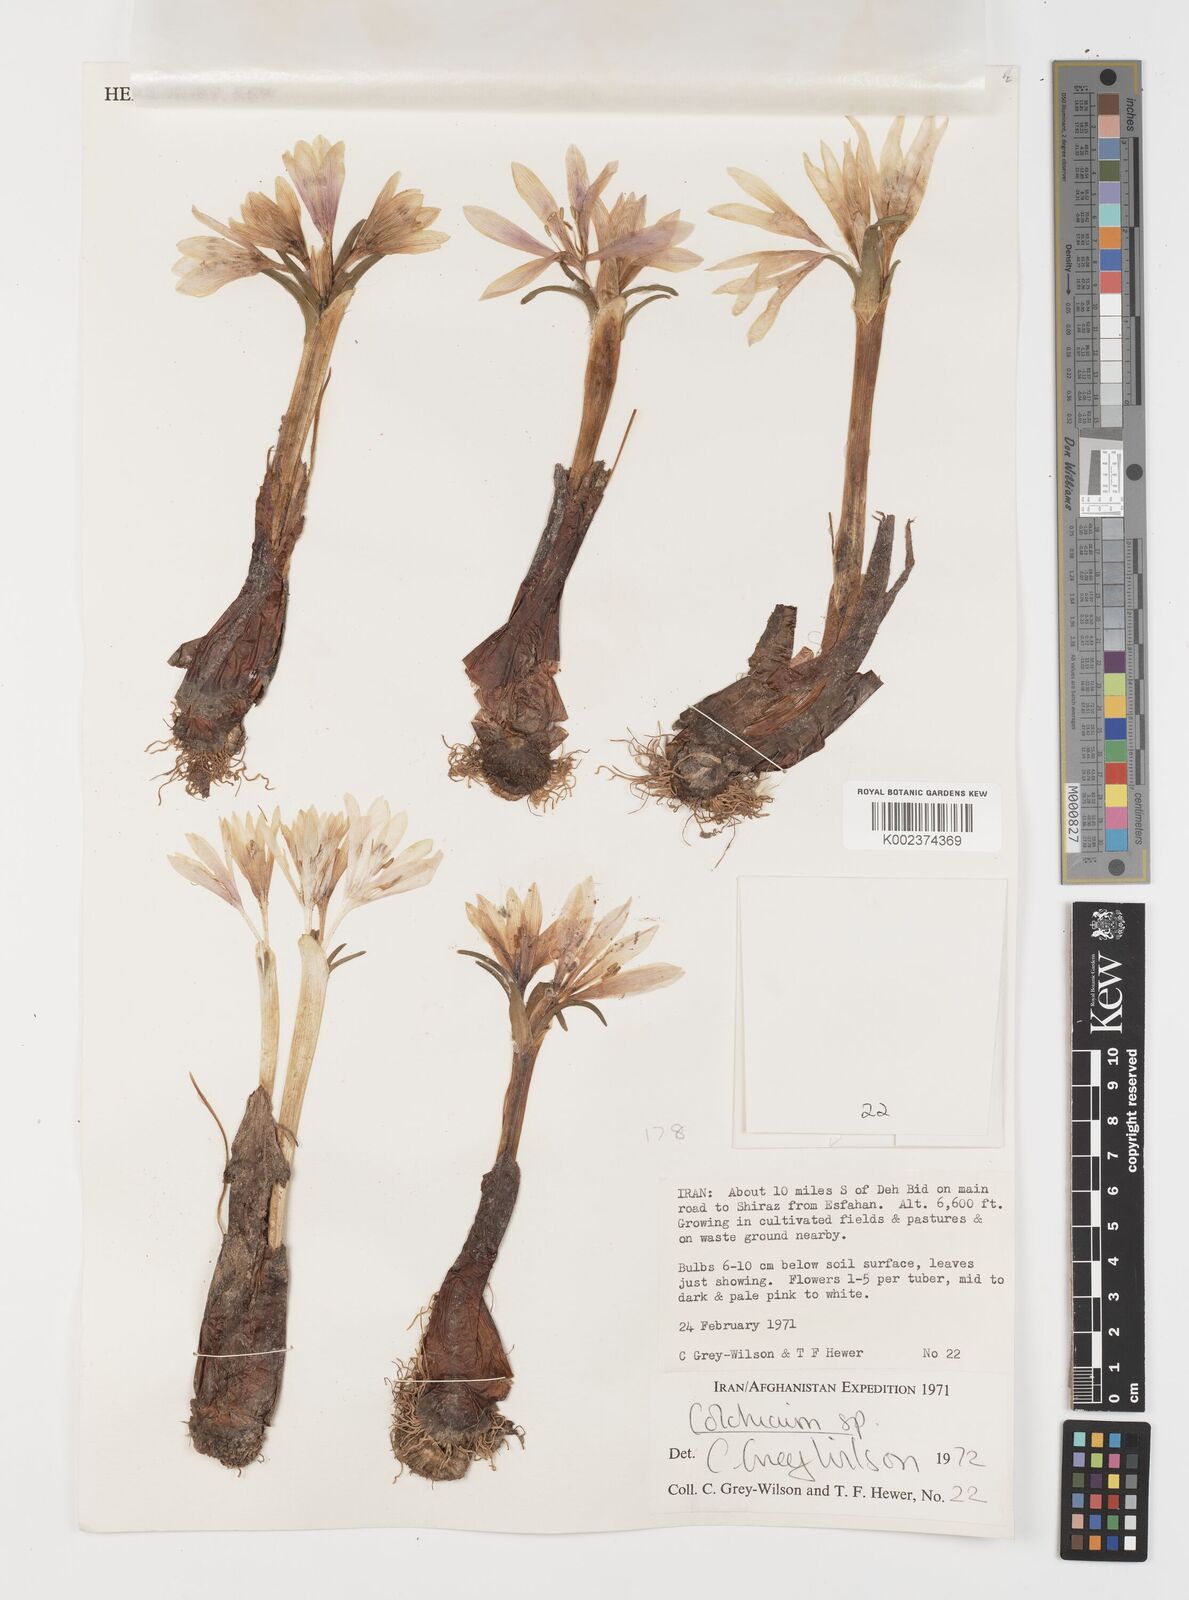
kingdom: Plantae
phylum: Tracheophyta
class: Liliopsida
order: Liliales
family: Colchicaceae
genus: Colchicum
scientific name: Colchicum
